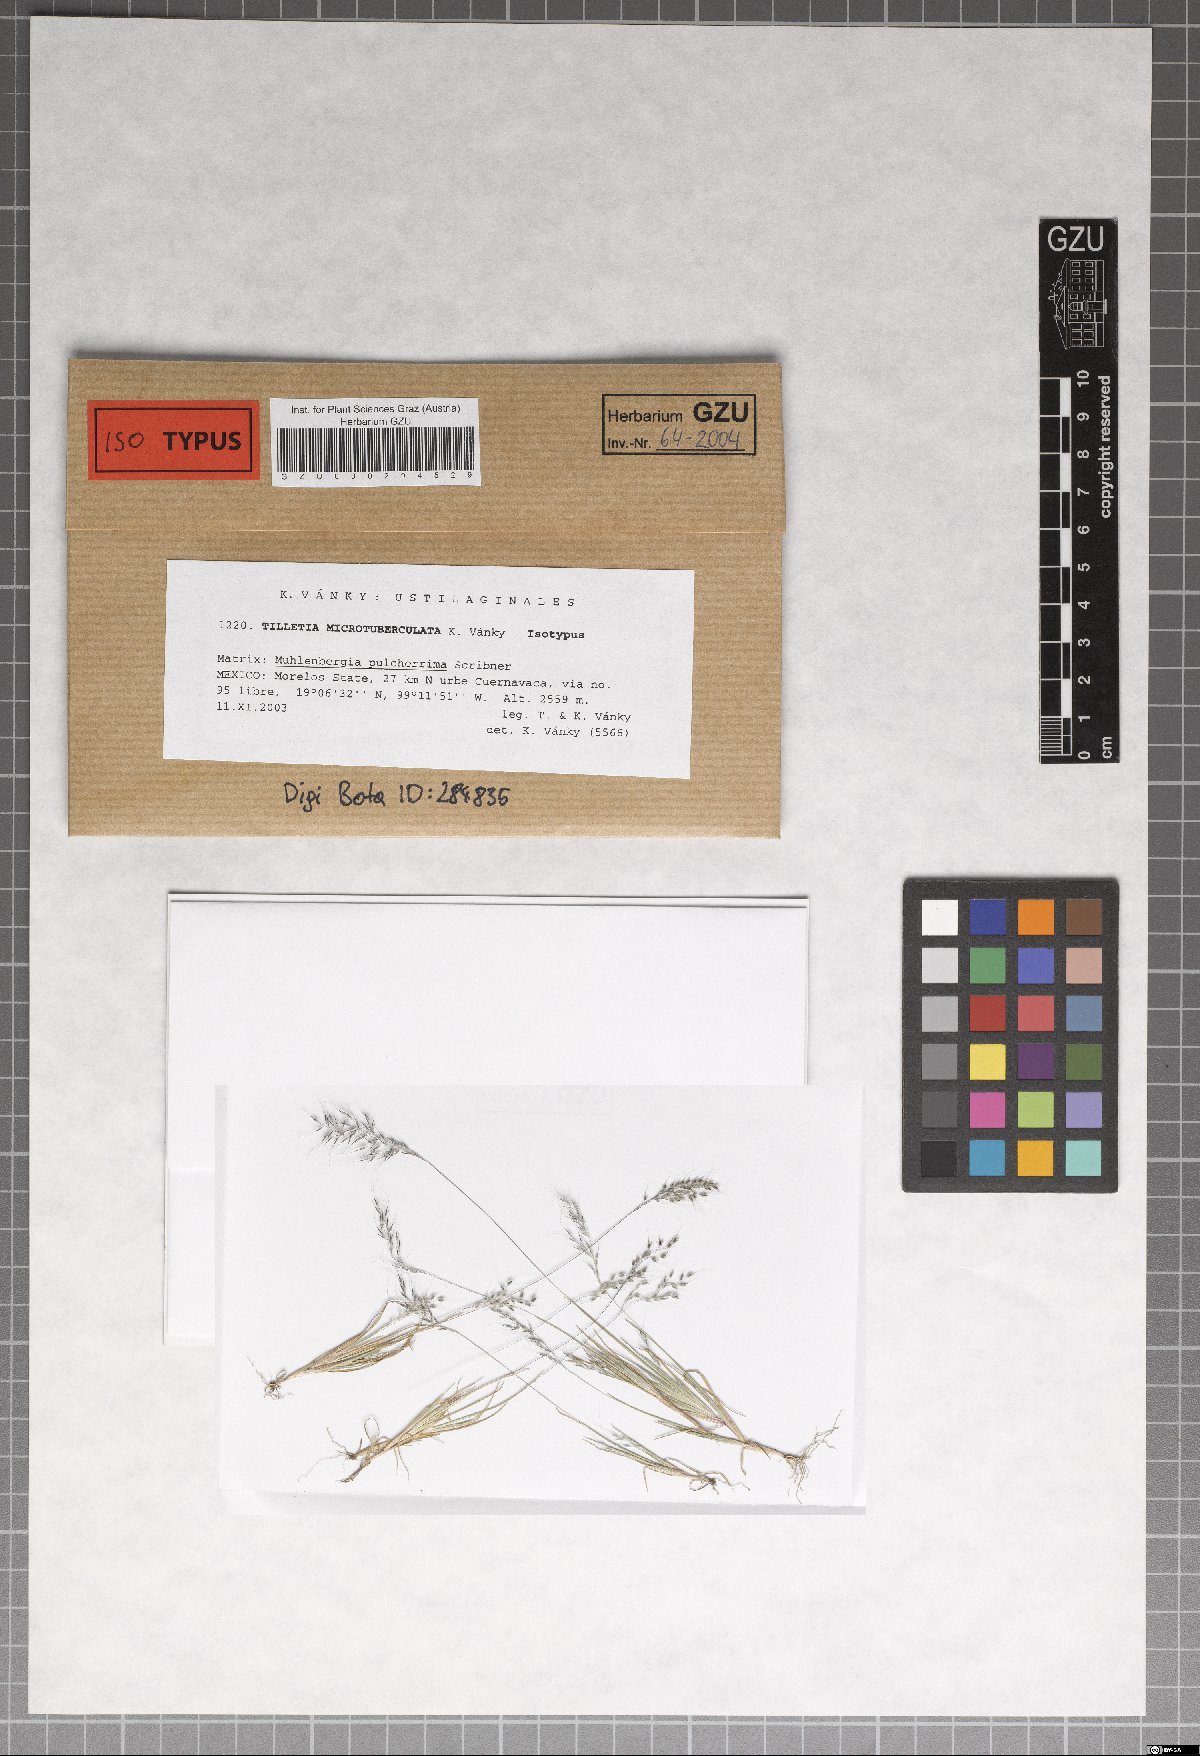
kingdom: Fungi
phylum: Basidiomycota
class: Exobasidiomycetes
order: Tilletiales
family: Tilletiaceae
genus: Tilletia
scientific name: Tilletia microtuberculata
